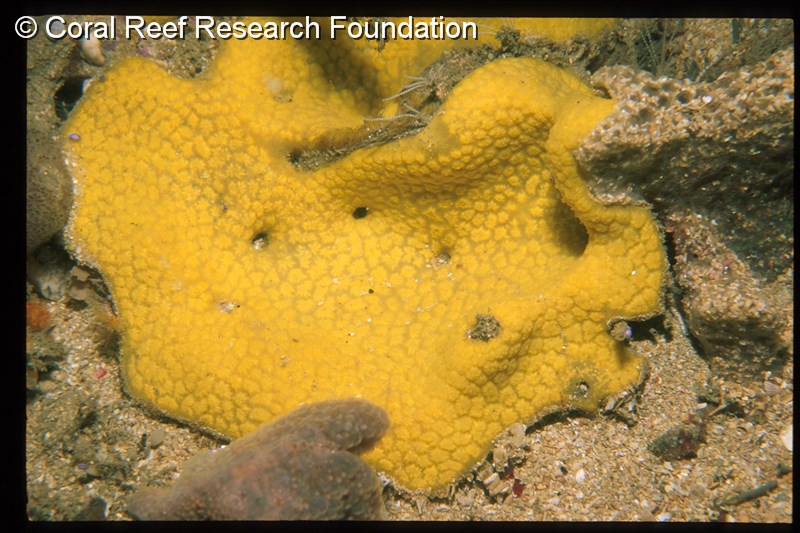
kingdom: Animalia
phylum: Chordata
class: Ascidiacea
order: Aplousobranchia
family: Polyclinidae
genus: Polyclinum
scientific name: Polyclinum
